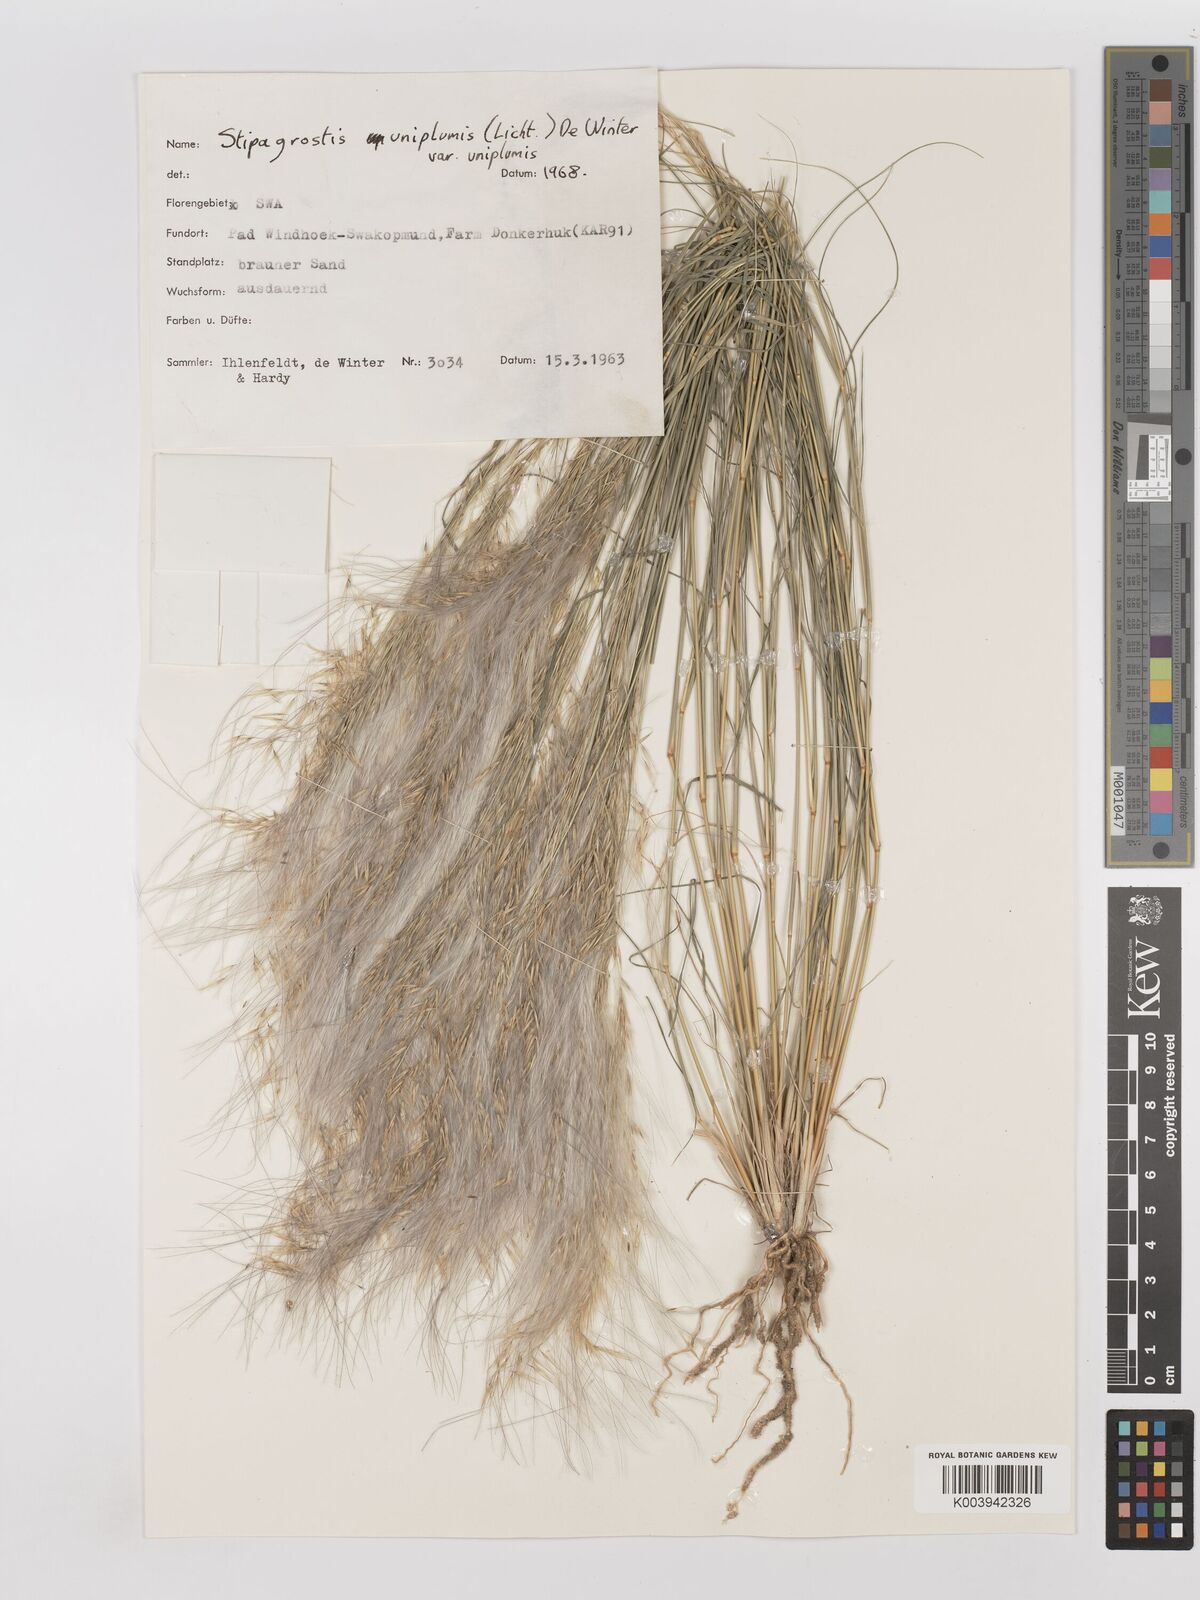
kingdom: Plantae
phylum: Tracheophyta
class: Liliopsida
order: Poales
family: Poaceae
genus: Stipagrostis
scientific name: Stipagrostis uniplumis
